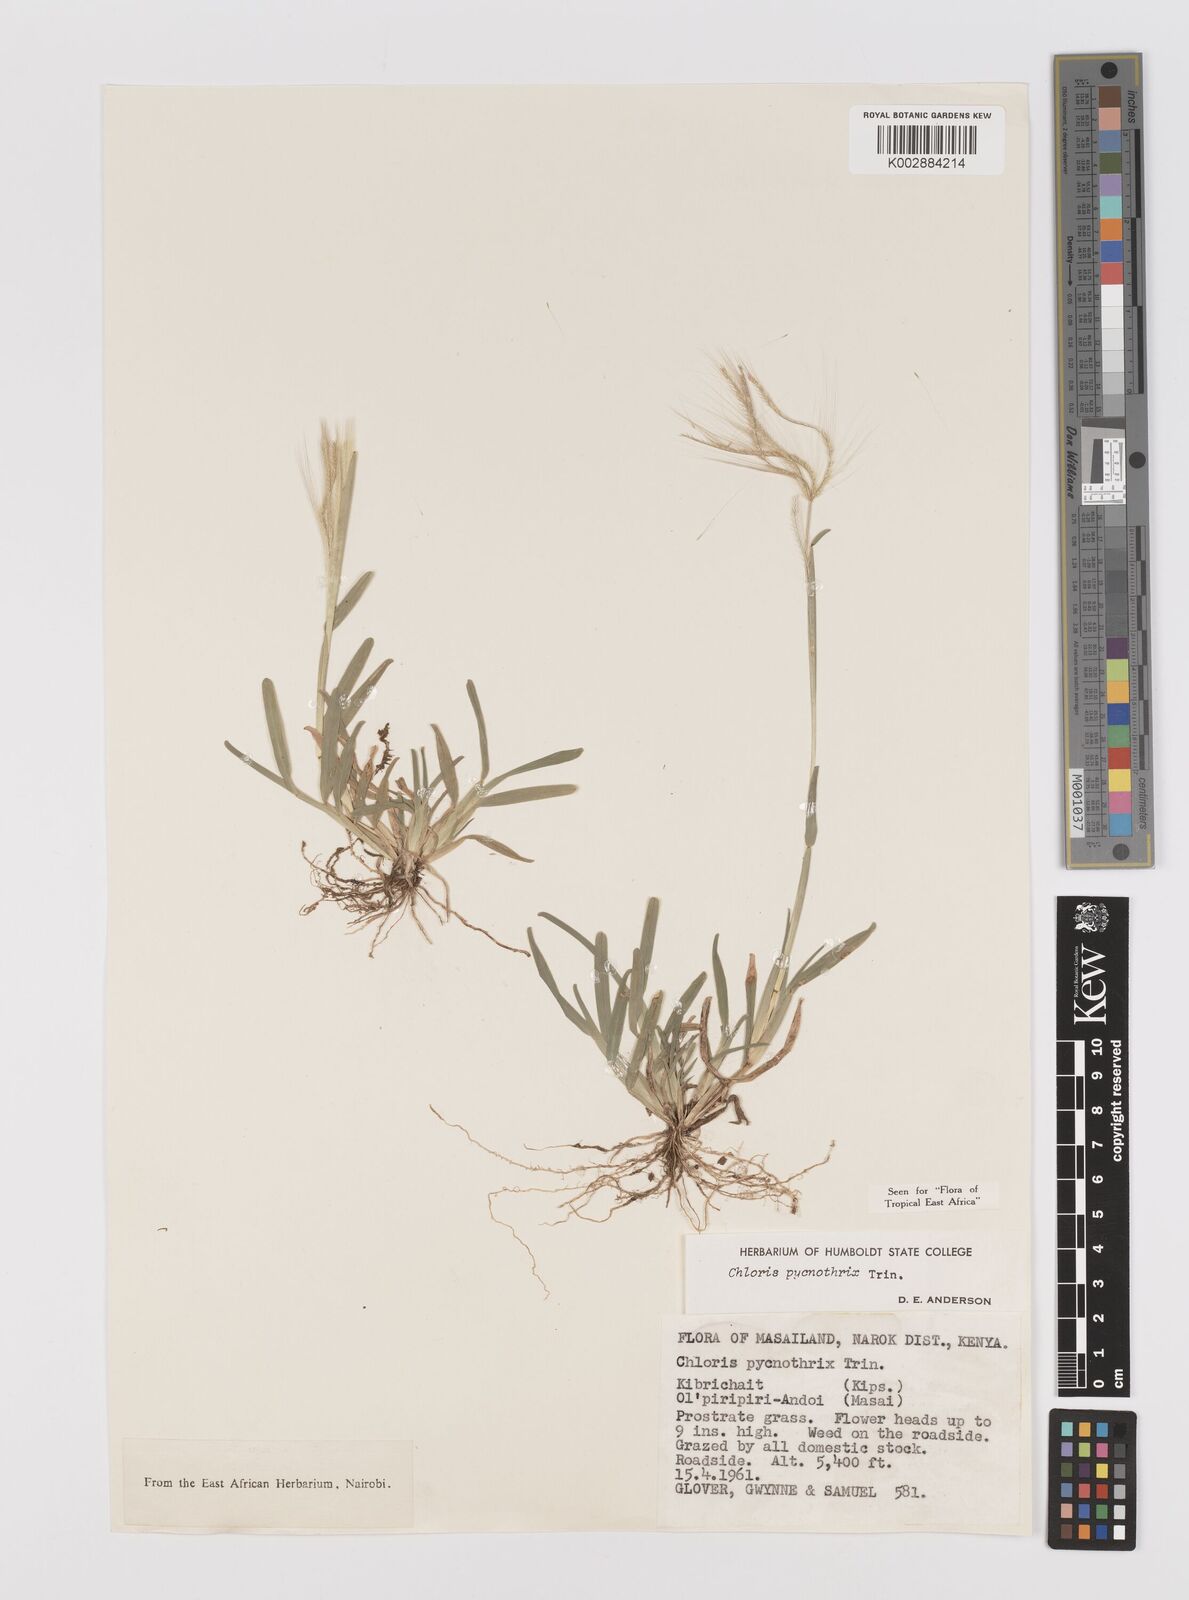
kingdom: Plantae
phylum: Tracheophyta
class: Liliopsida
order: Poales
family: Poaceae
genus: Chloris
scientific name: Chloris pycnothrix
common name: Spiderweb chloris
